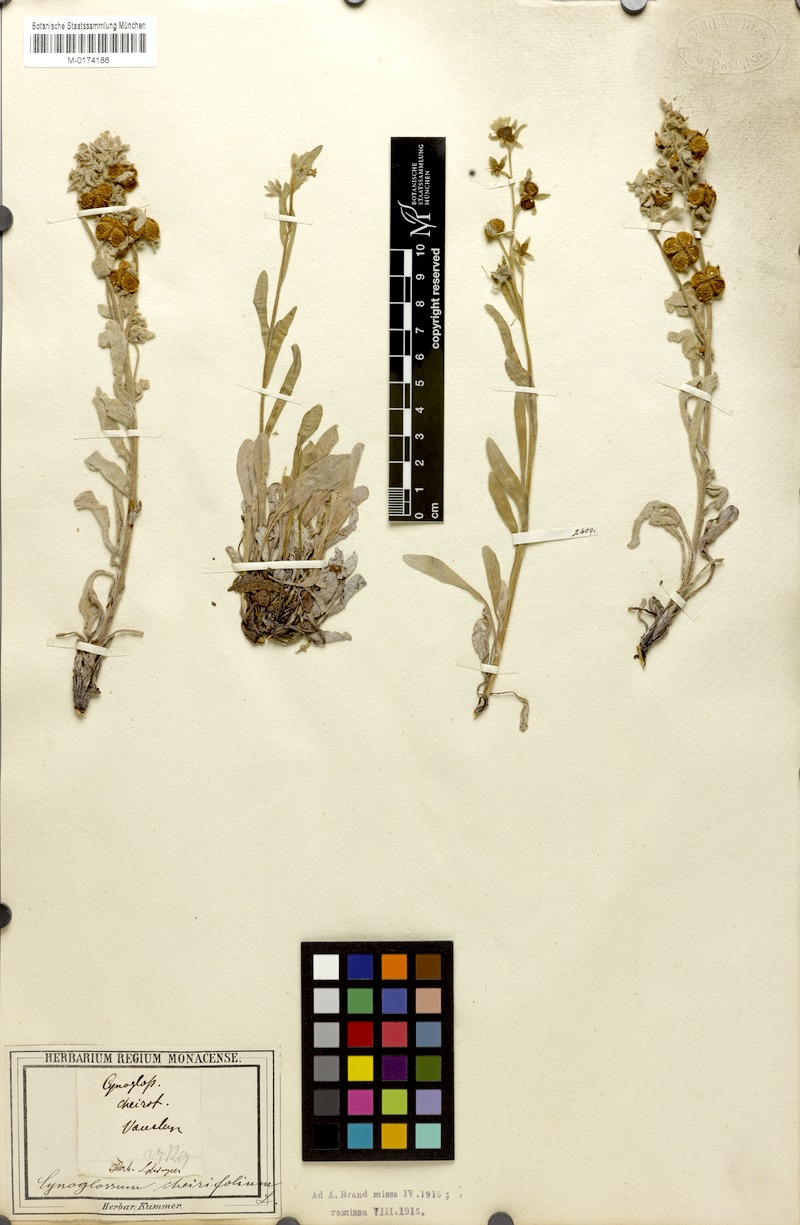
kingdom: Plantae
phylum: Tracheophyta
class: Magnoliopsida
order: Boraginales
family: Boraginaceae
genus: Pardoglossum
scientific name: Pardoglossum cheirifolium
